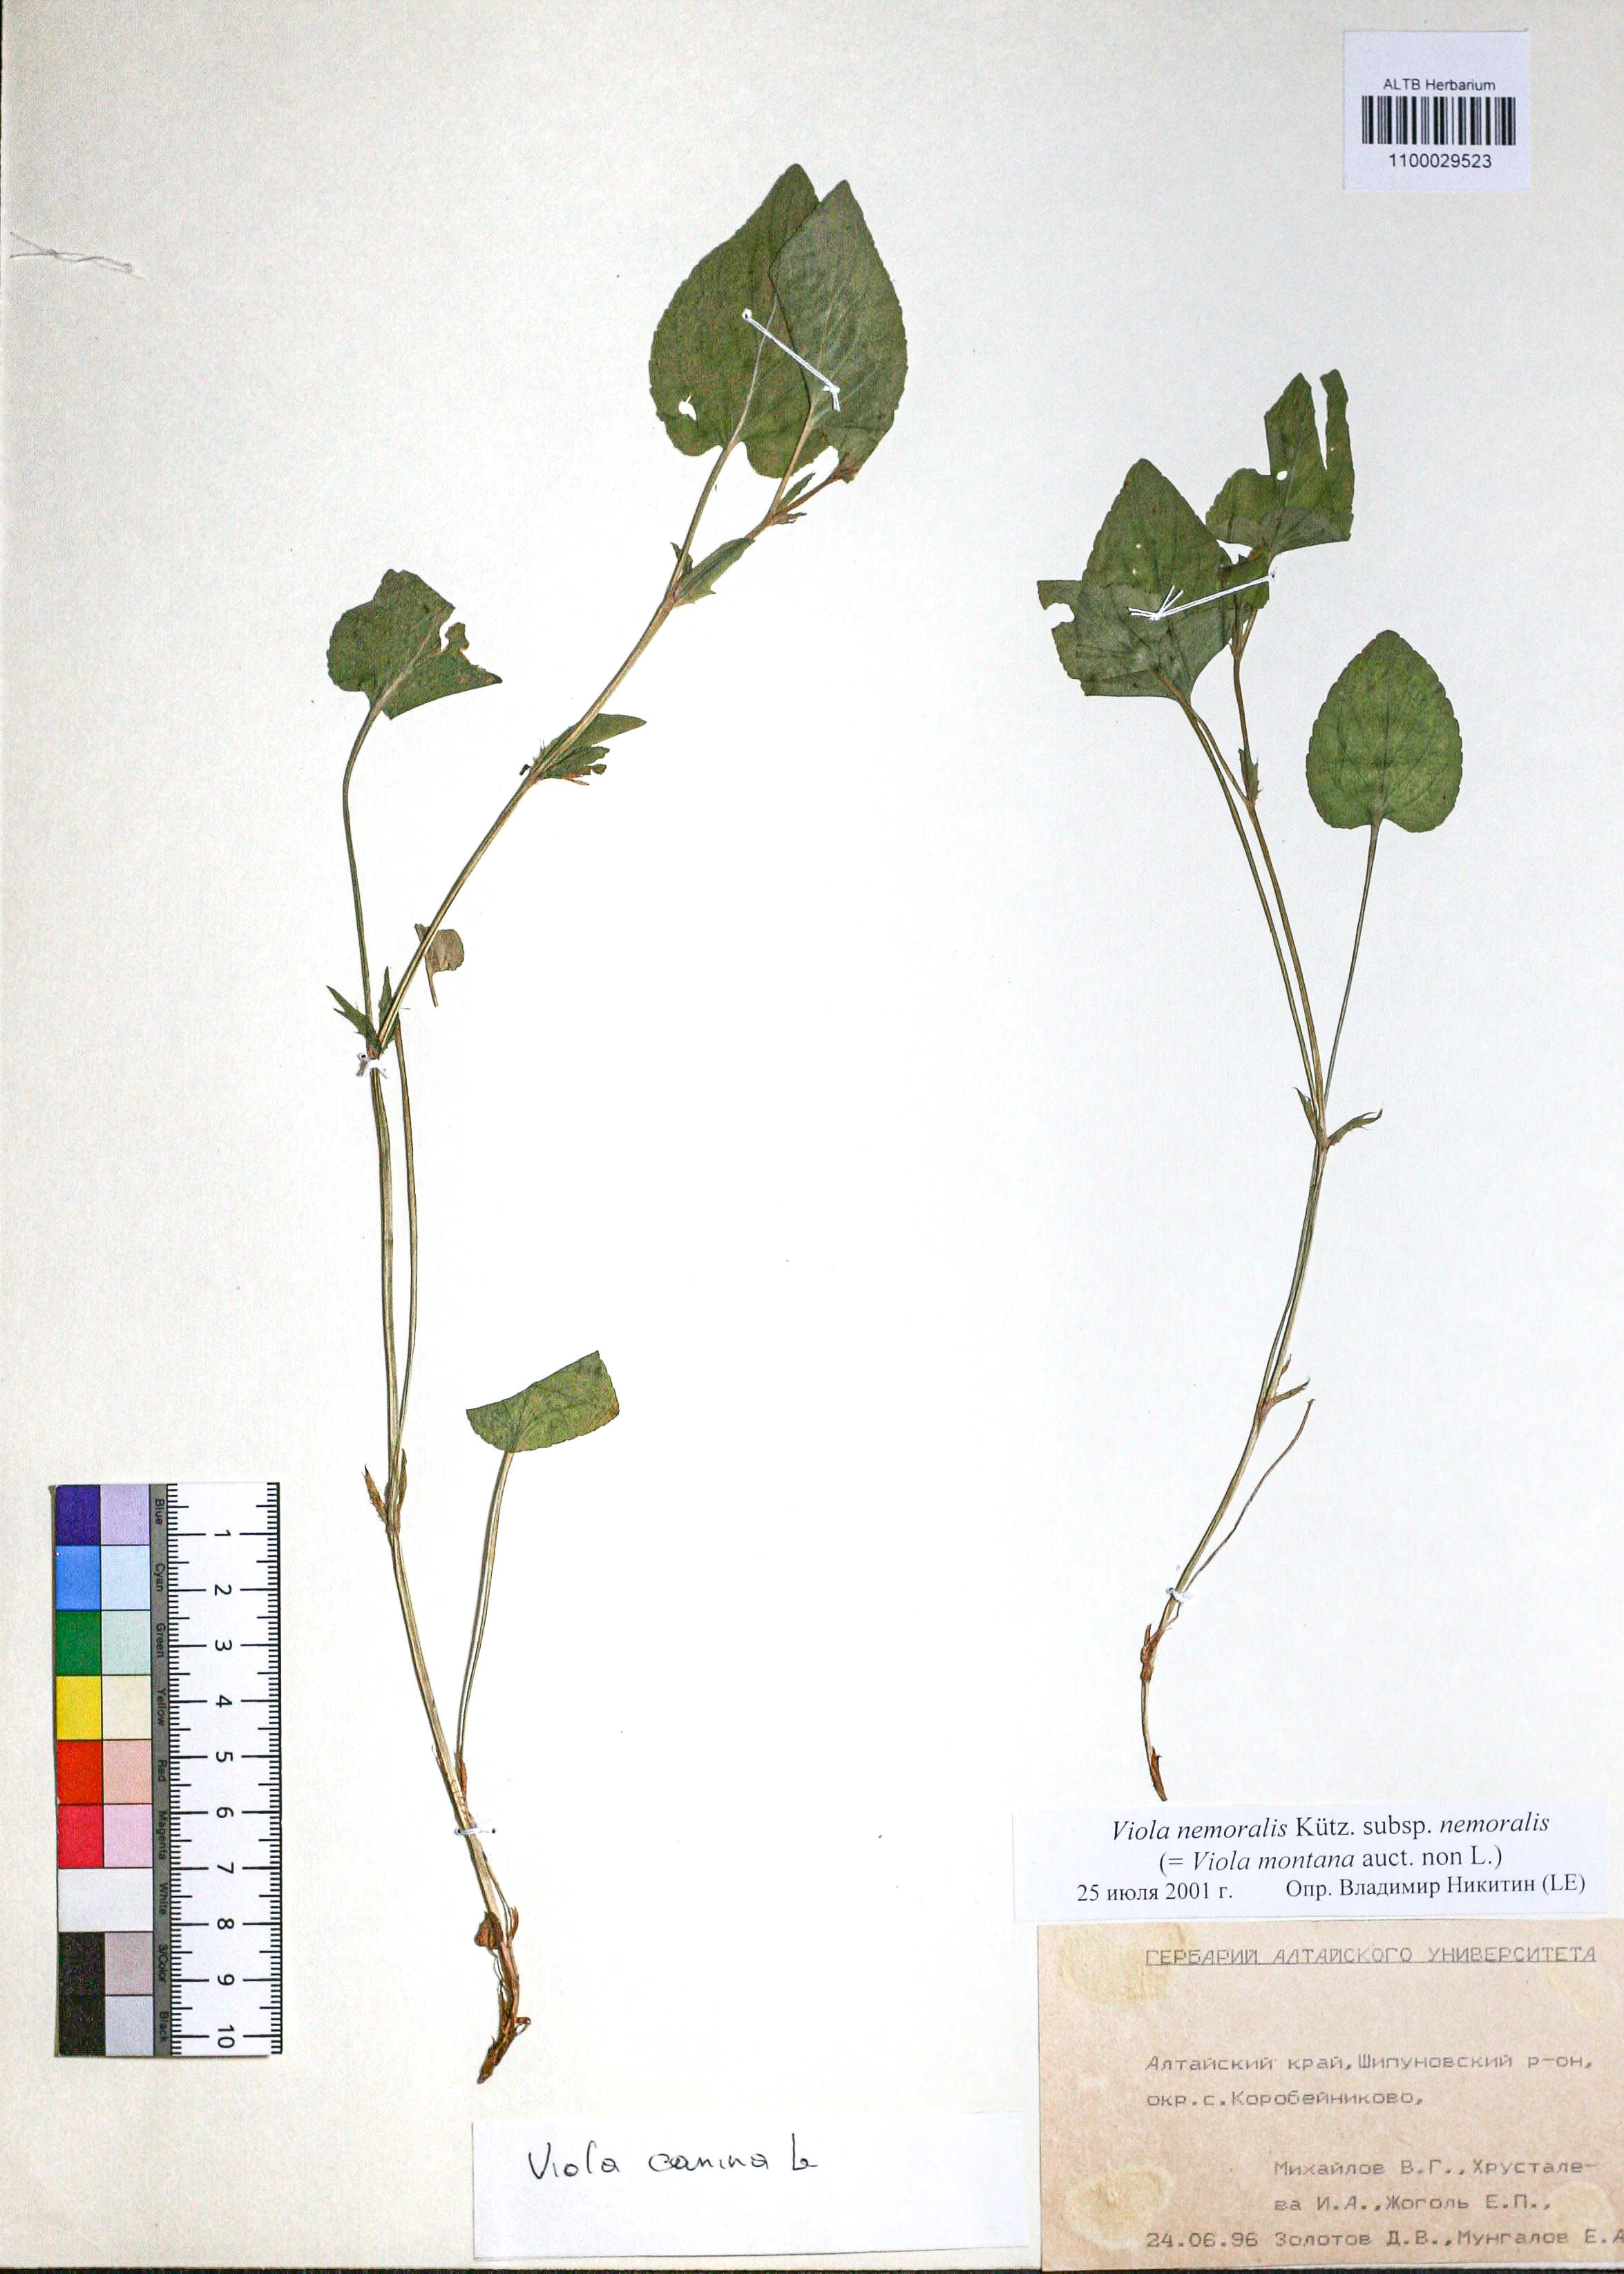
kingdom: Plantae
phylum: Tracheophyta
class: Magnoliopsida
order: Malpighiales
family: Violaceae
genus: Viola
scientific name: Viola ruppii
